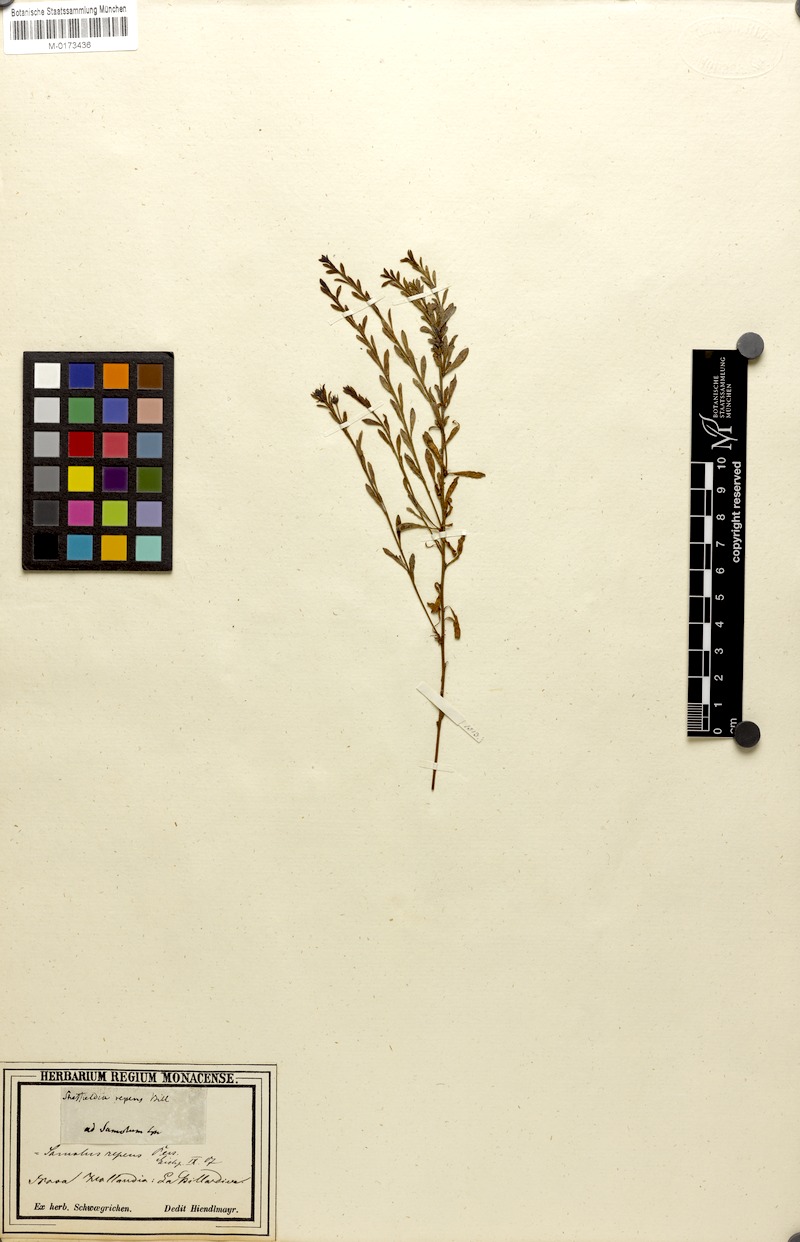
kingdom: Plantae
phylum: Tracheophyta
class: Magnoliopsida
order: Ericales
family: Primulaceae
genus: Samolus
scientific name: Samolus repens
